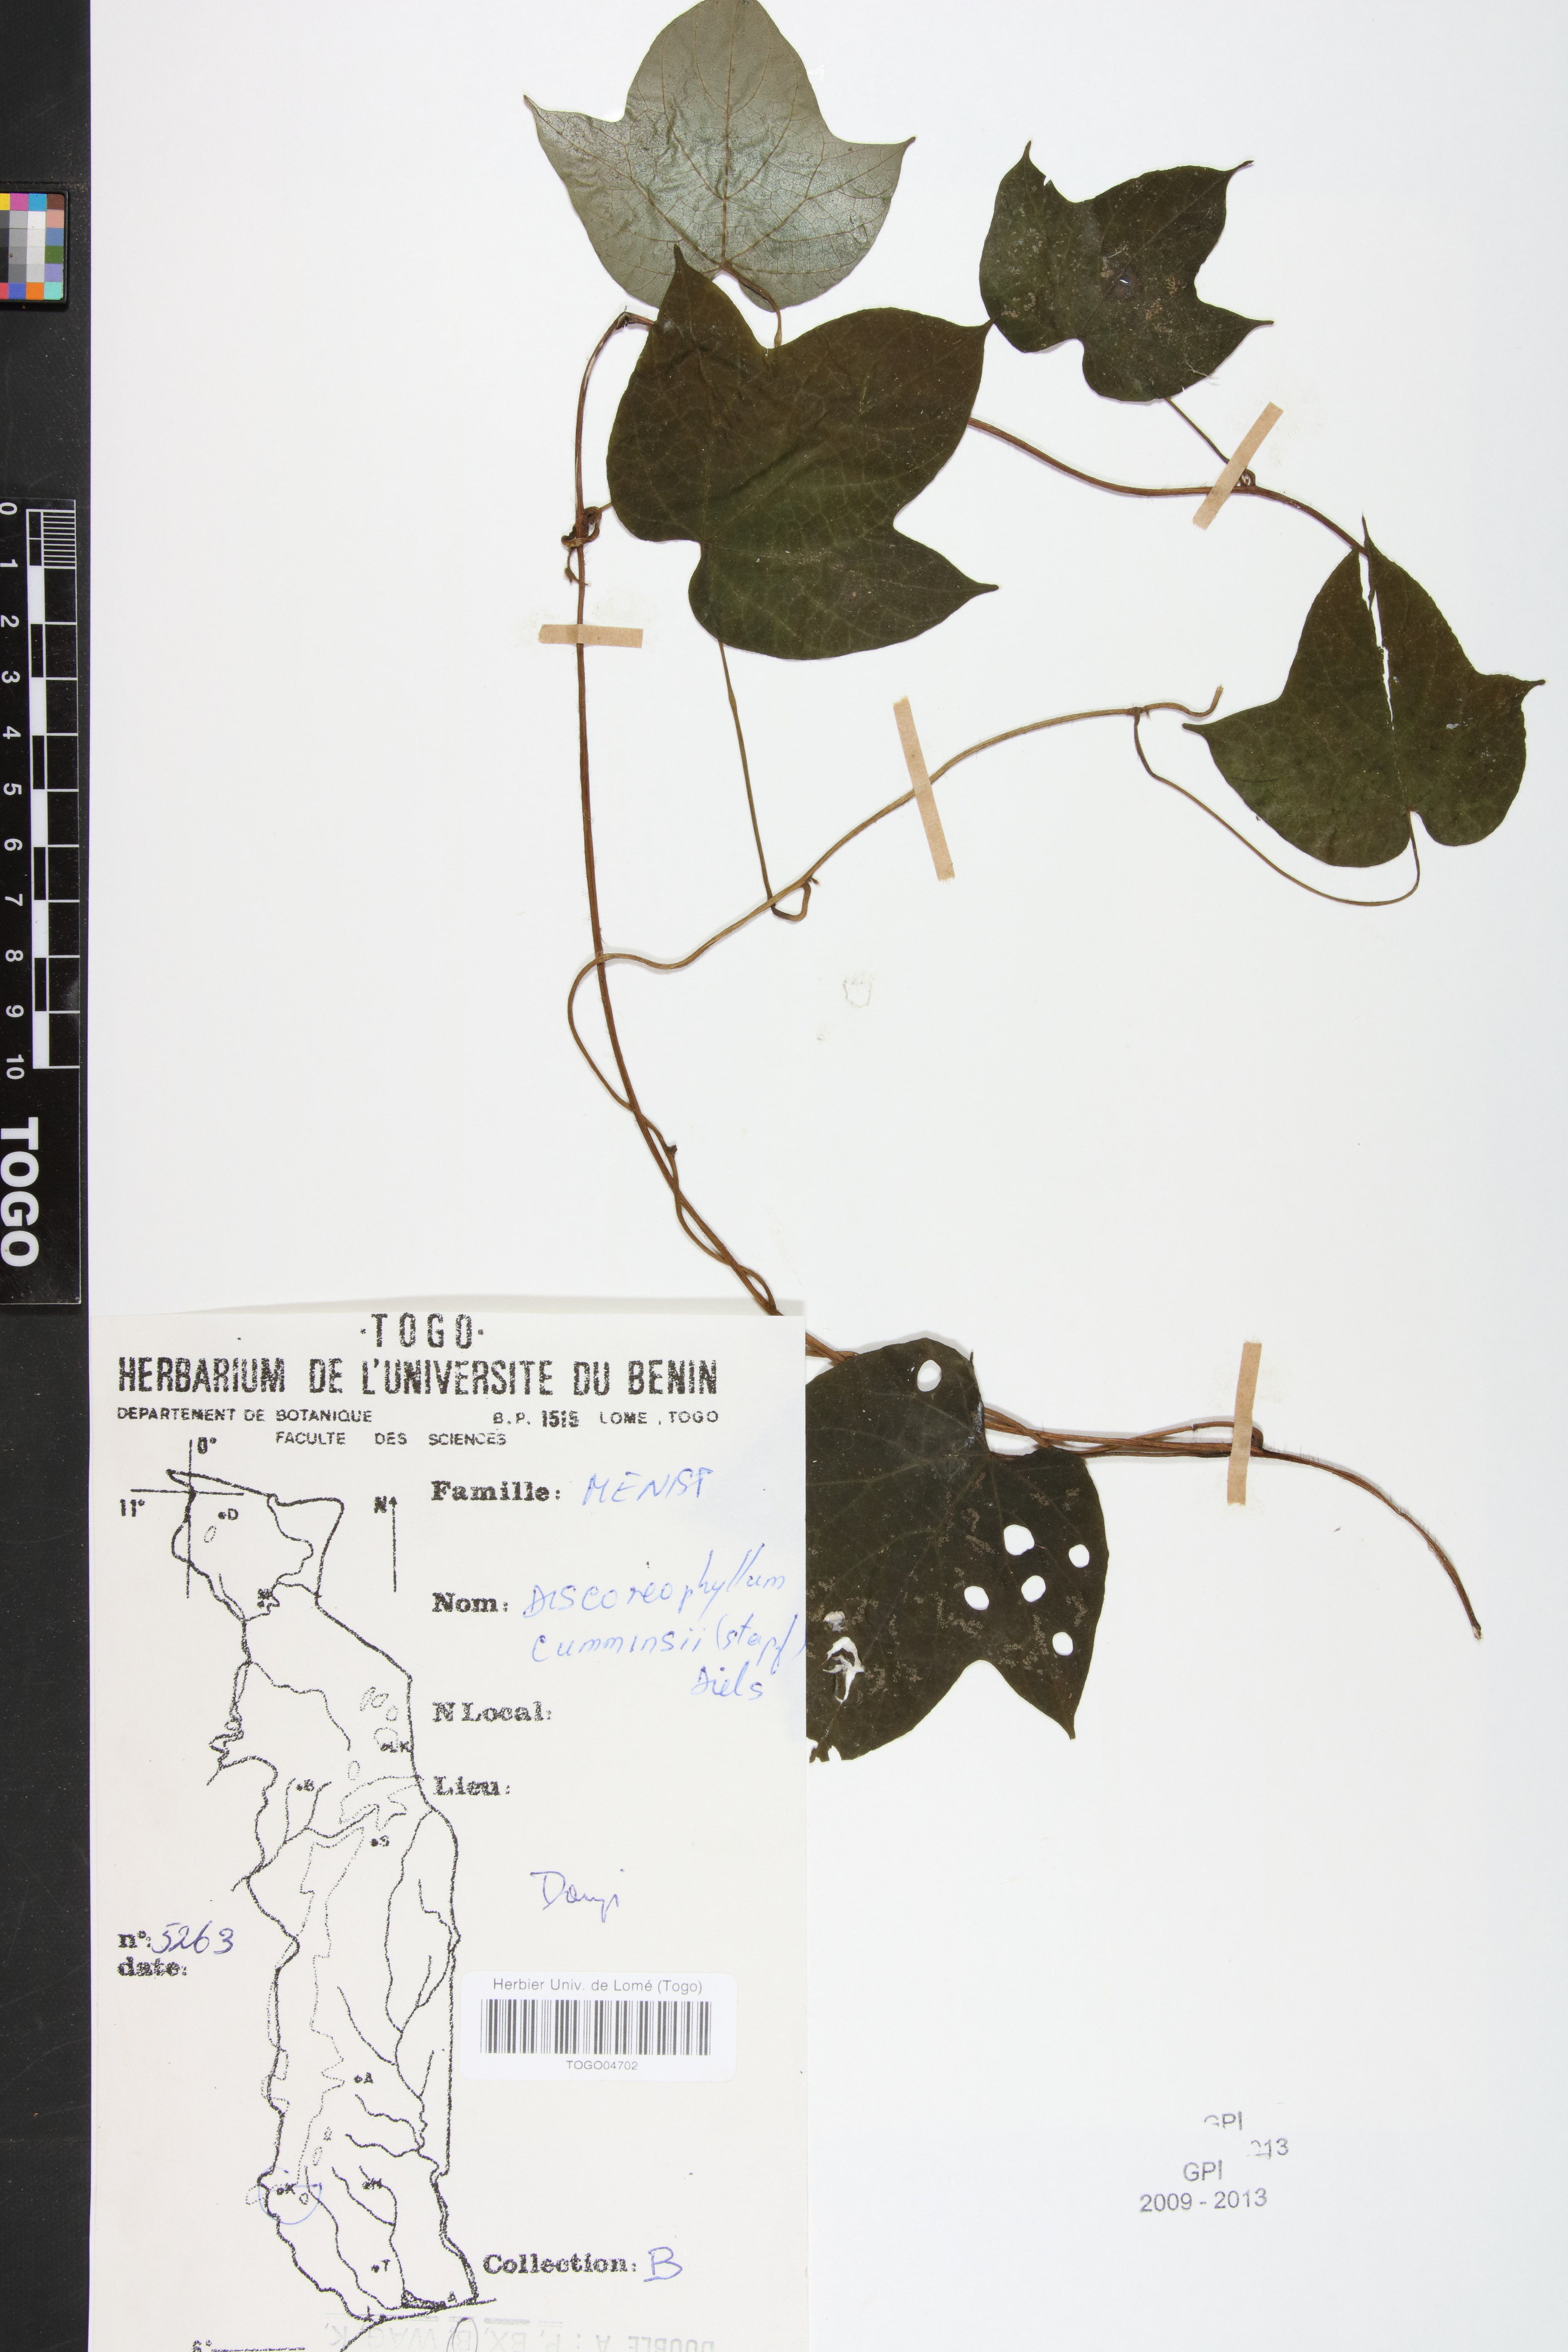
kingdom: Plantae
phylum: Tracheophyta
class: Magnoliopsida
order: Ranunculales
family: Menispermaceae
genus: Dioscoreophyllum
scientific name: Dioscoreophyllum volkensii
